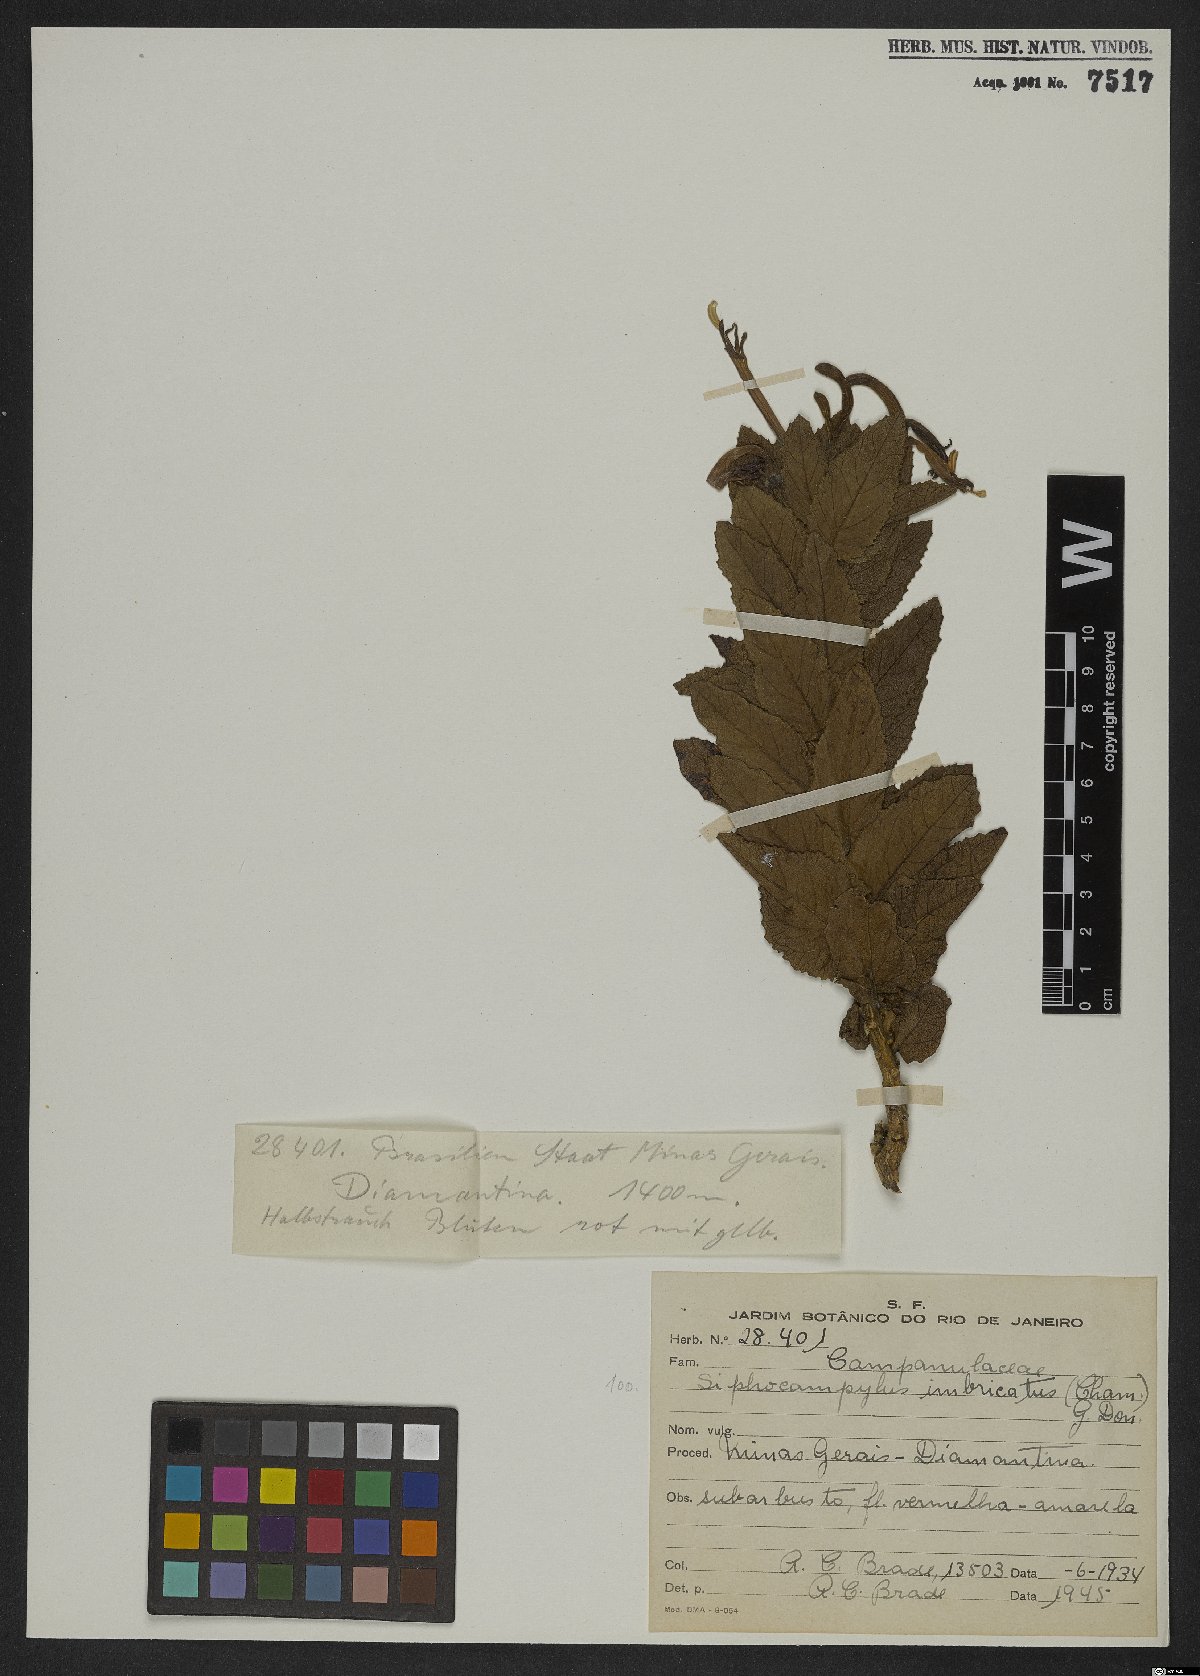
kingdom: Plantae
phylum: Tracheophyta
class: Magnoliopsida
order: Asterales
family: Campanulaceae
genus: Siphocampylus
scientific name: Siphocampylus imbricatus
